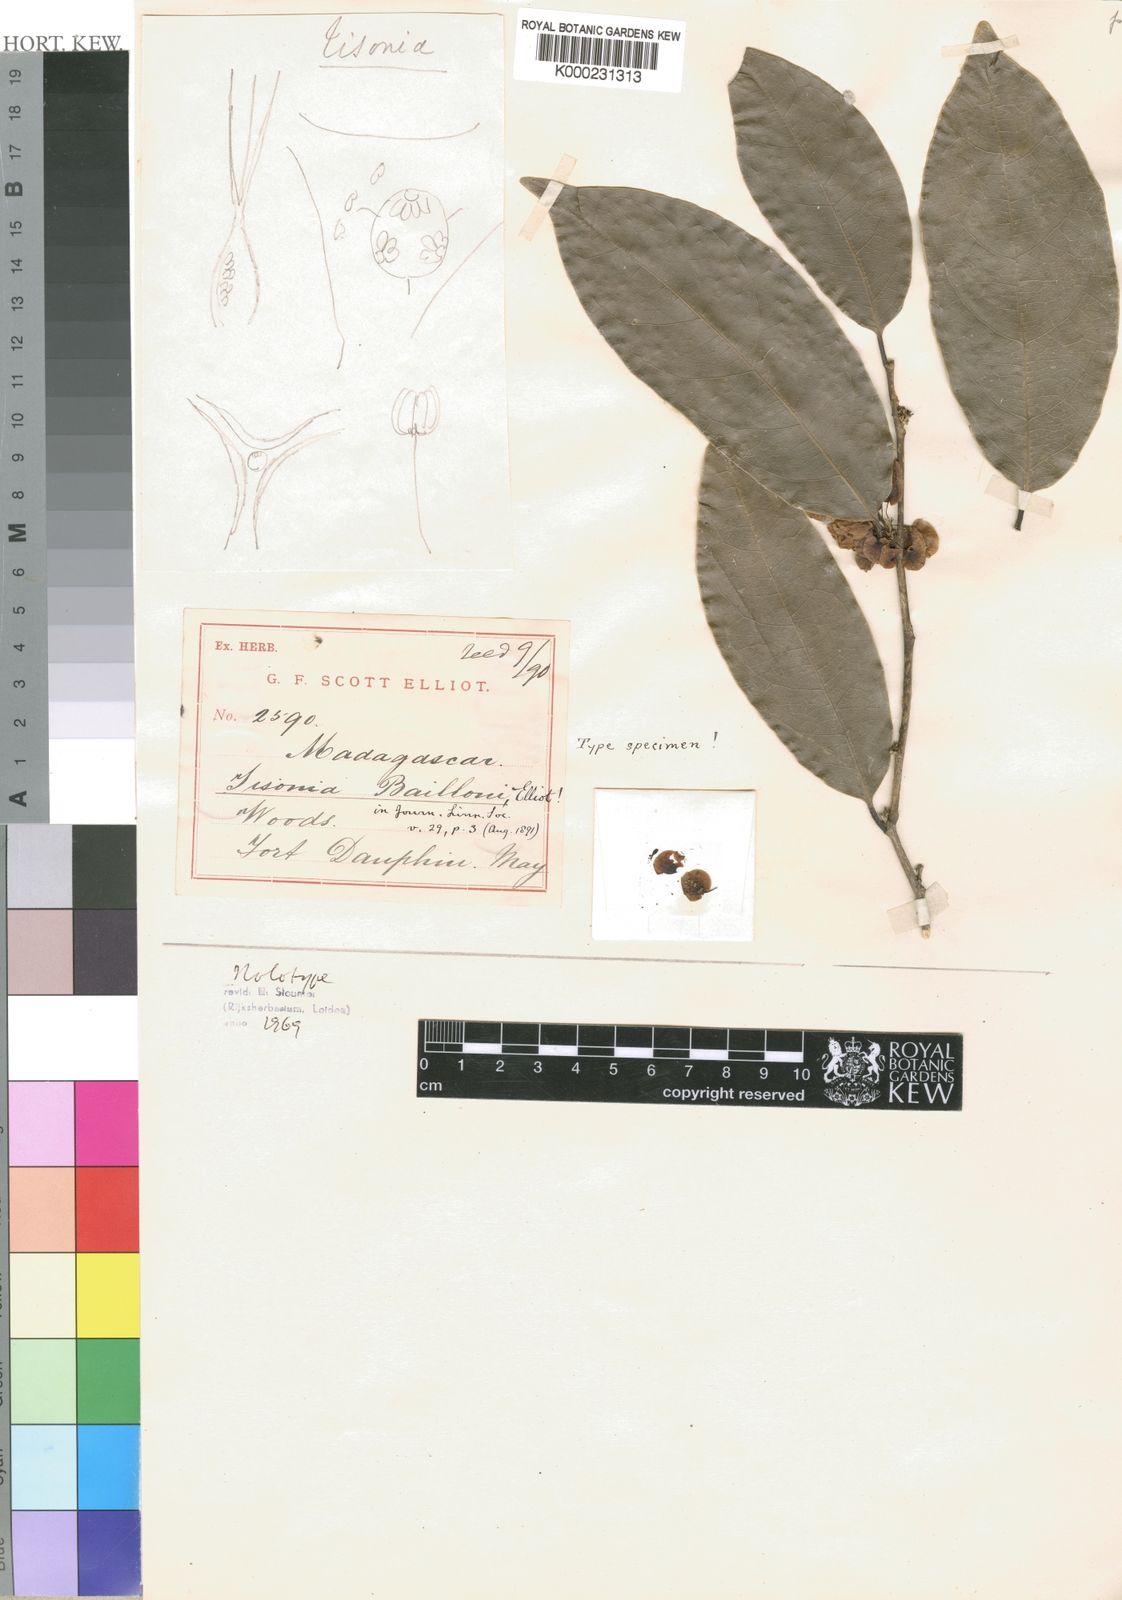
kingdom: Plantae
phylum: Tracheophyta
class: Magnoliopsida
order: Malpighiales
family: Salicaceae
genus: Tisonia
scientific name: Tisonia baillonii
